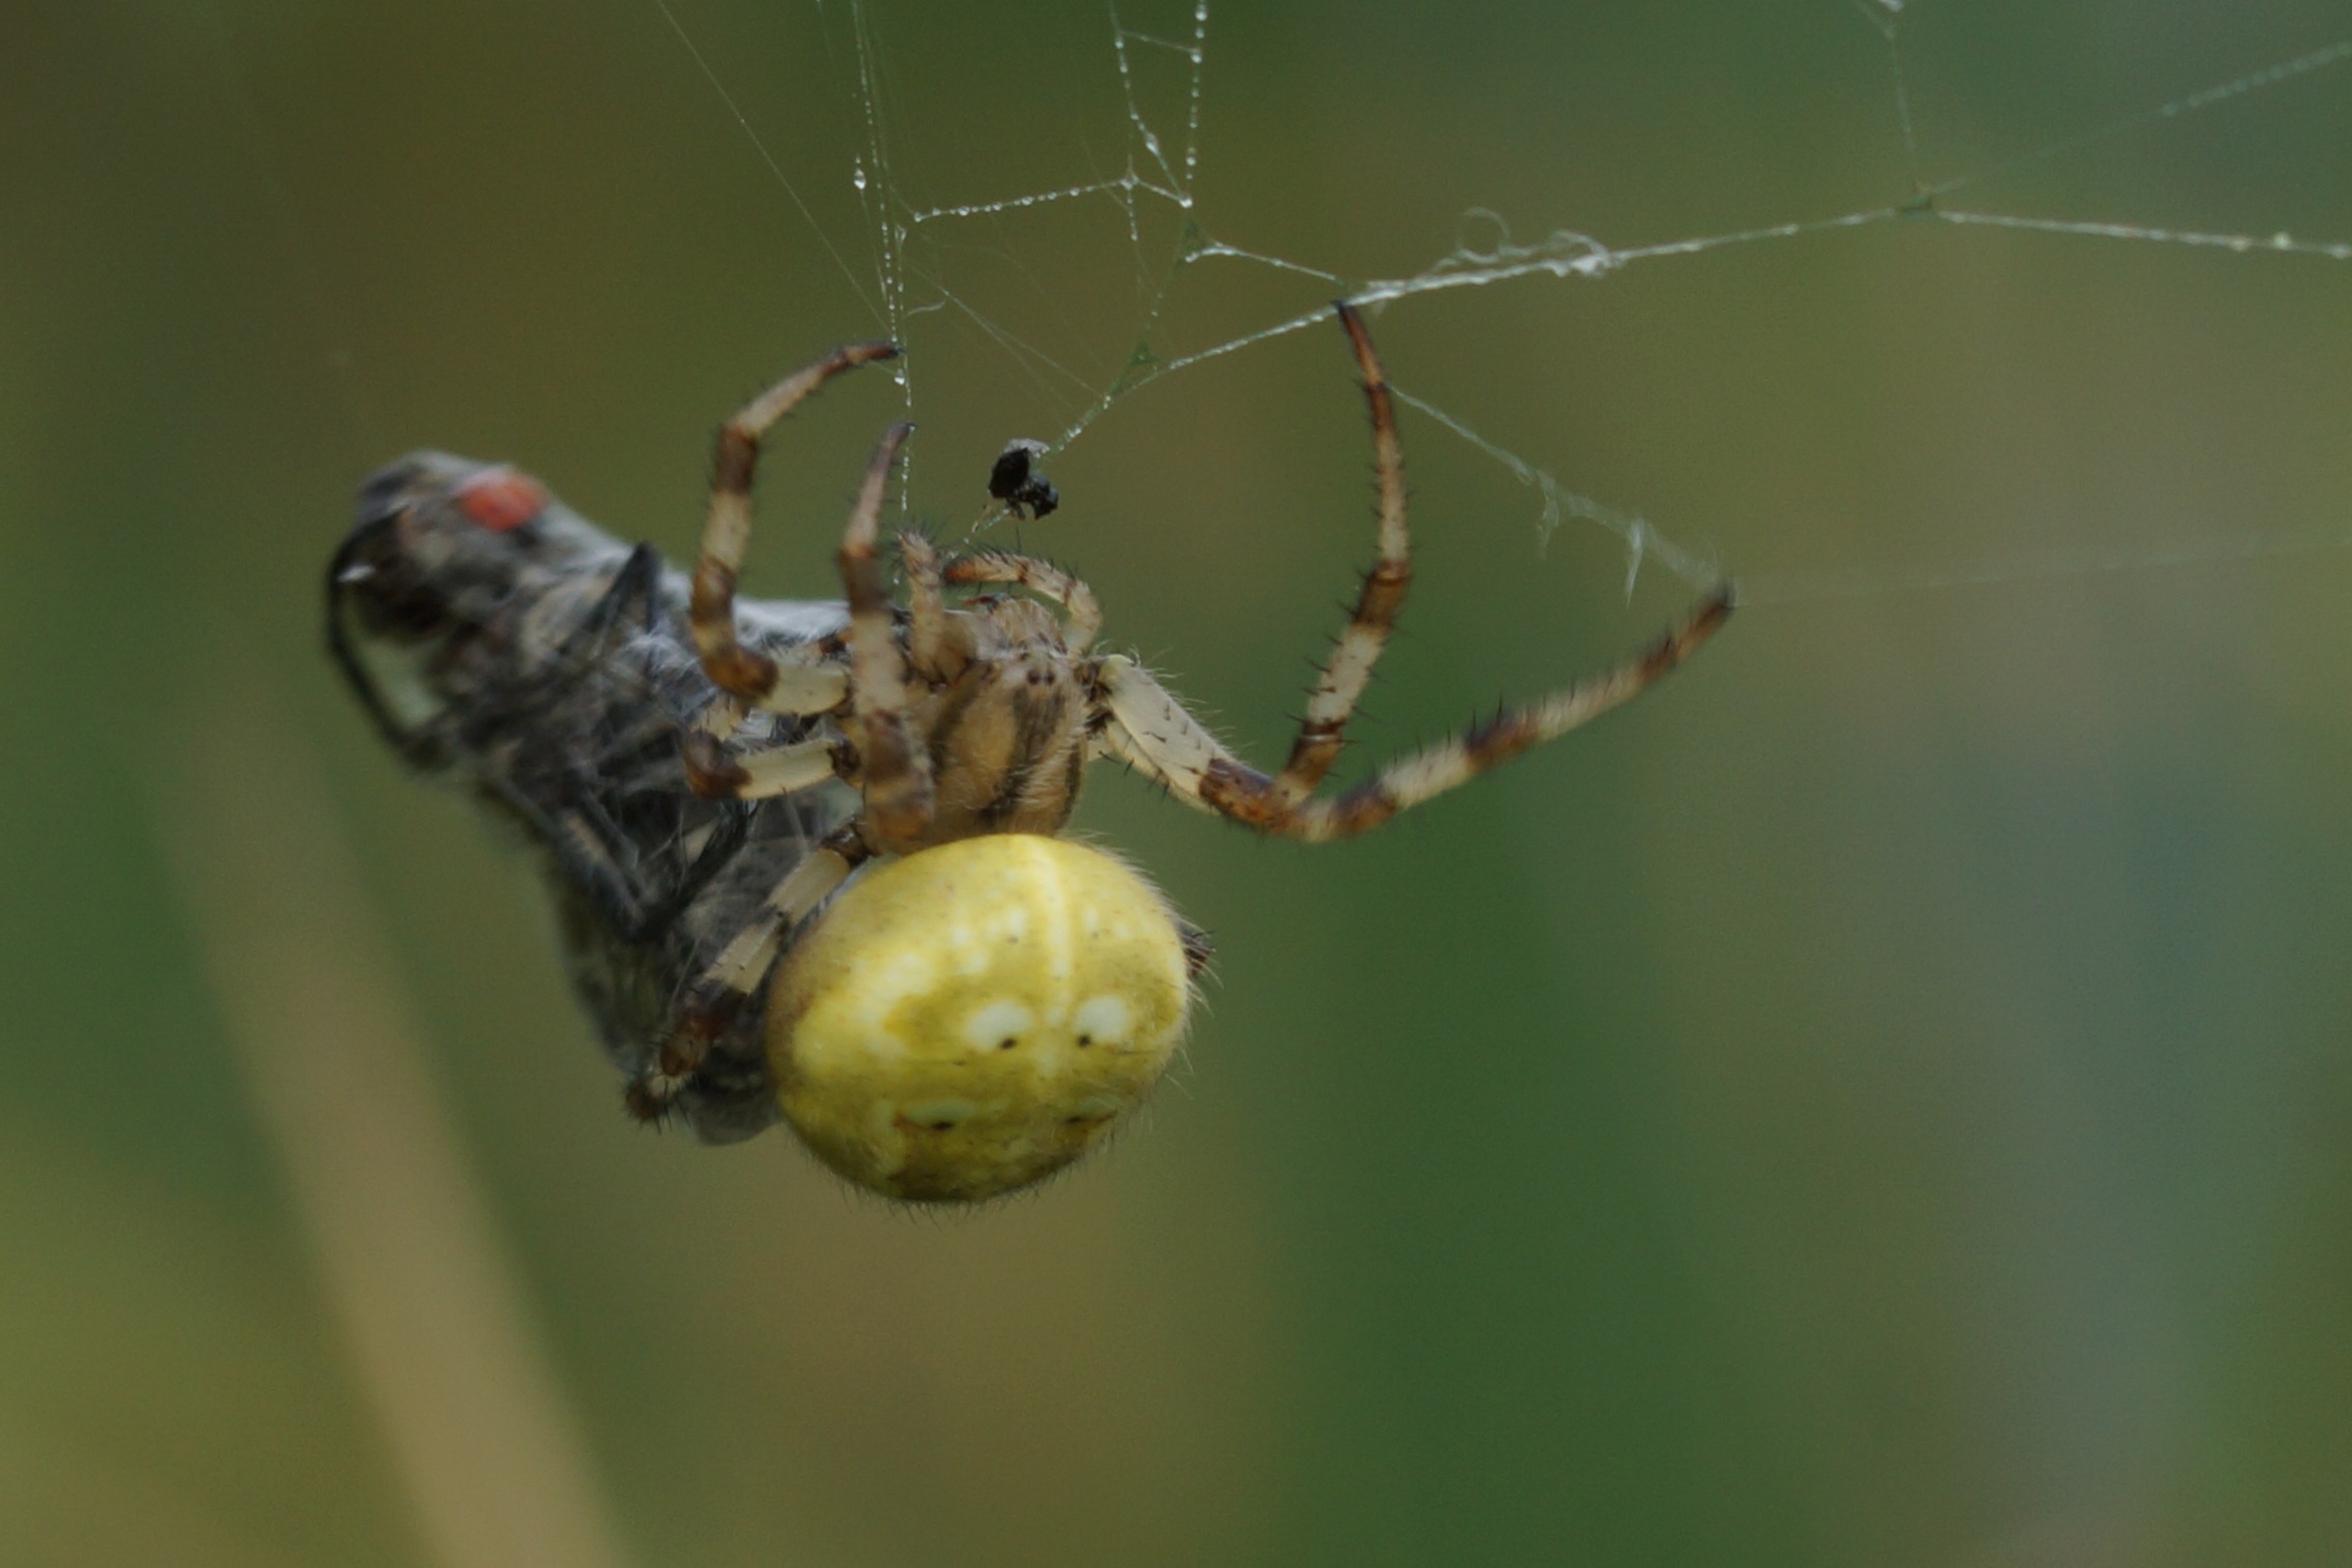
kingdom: Animalia
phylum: Arthropoda
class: Arachnida
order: Araneae
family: Araneidae
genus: Araneus
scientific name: Araneus quadratus
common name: Kvadratedderkop
